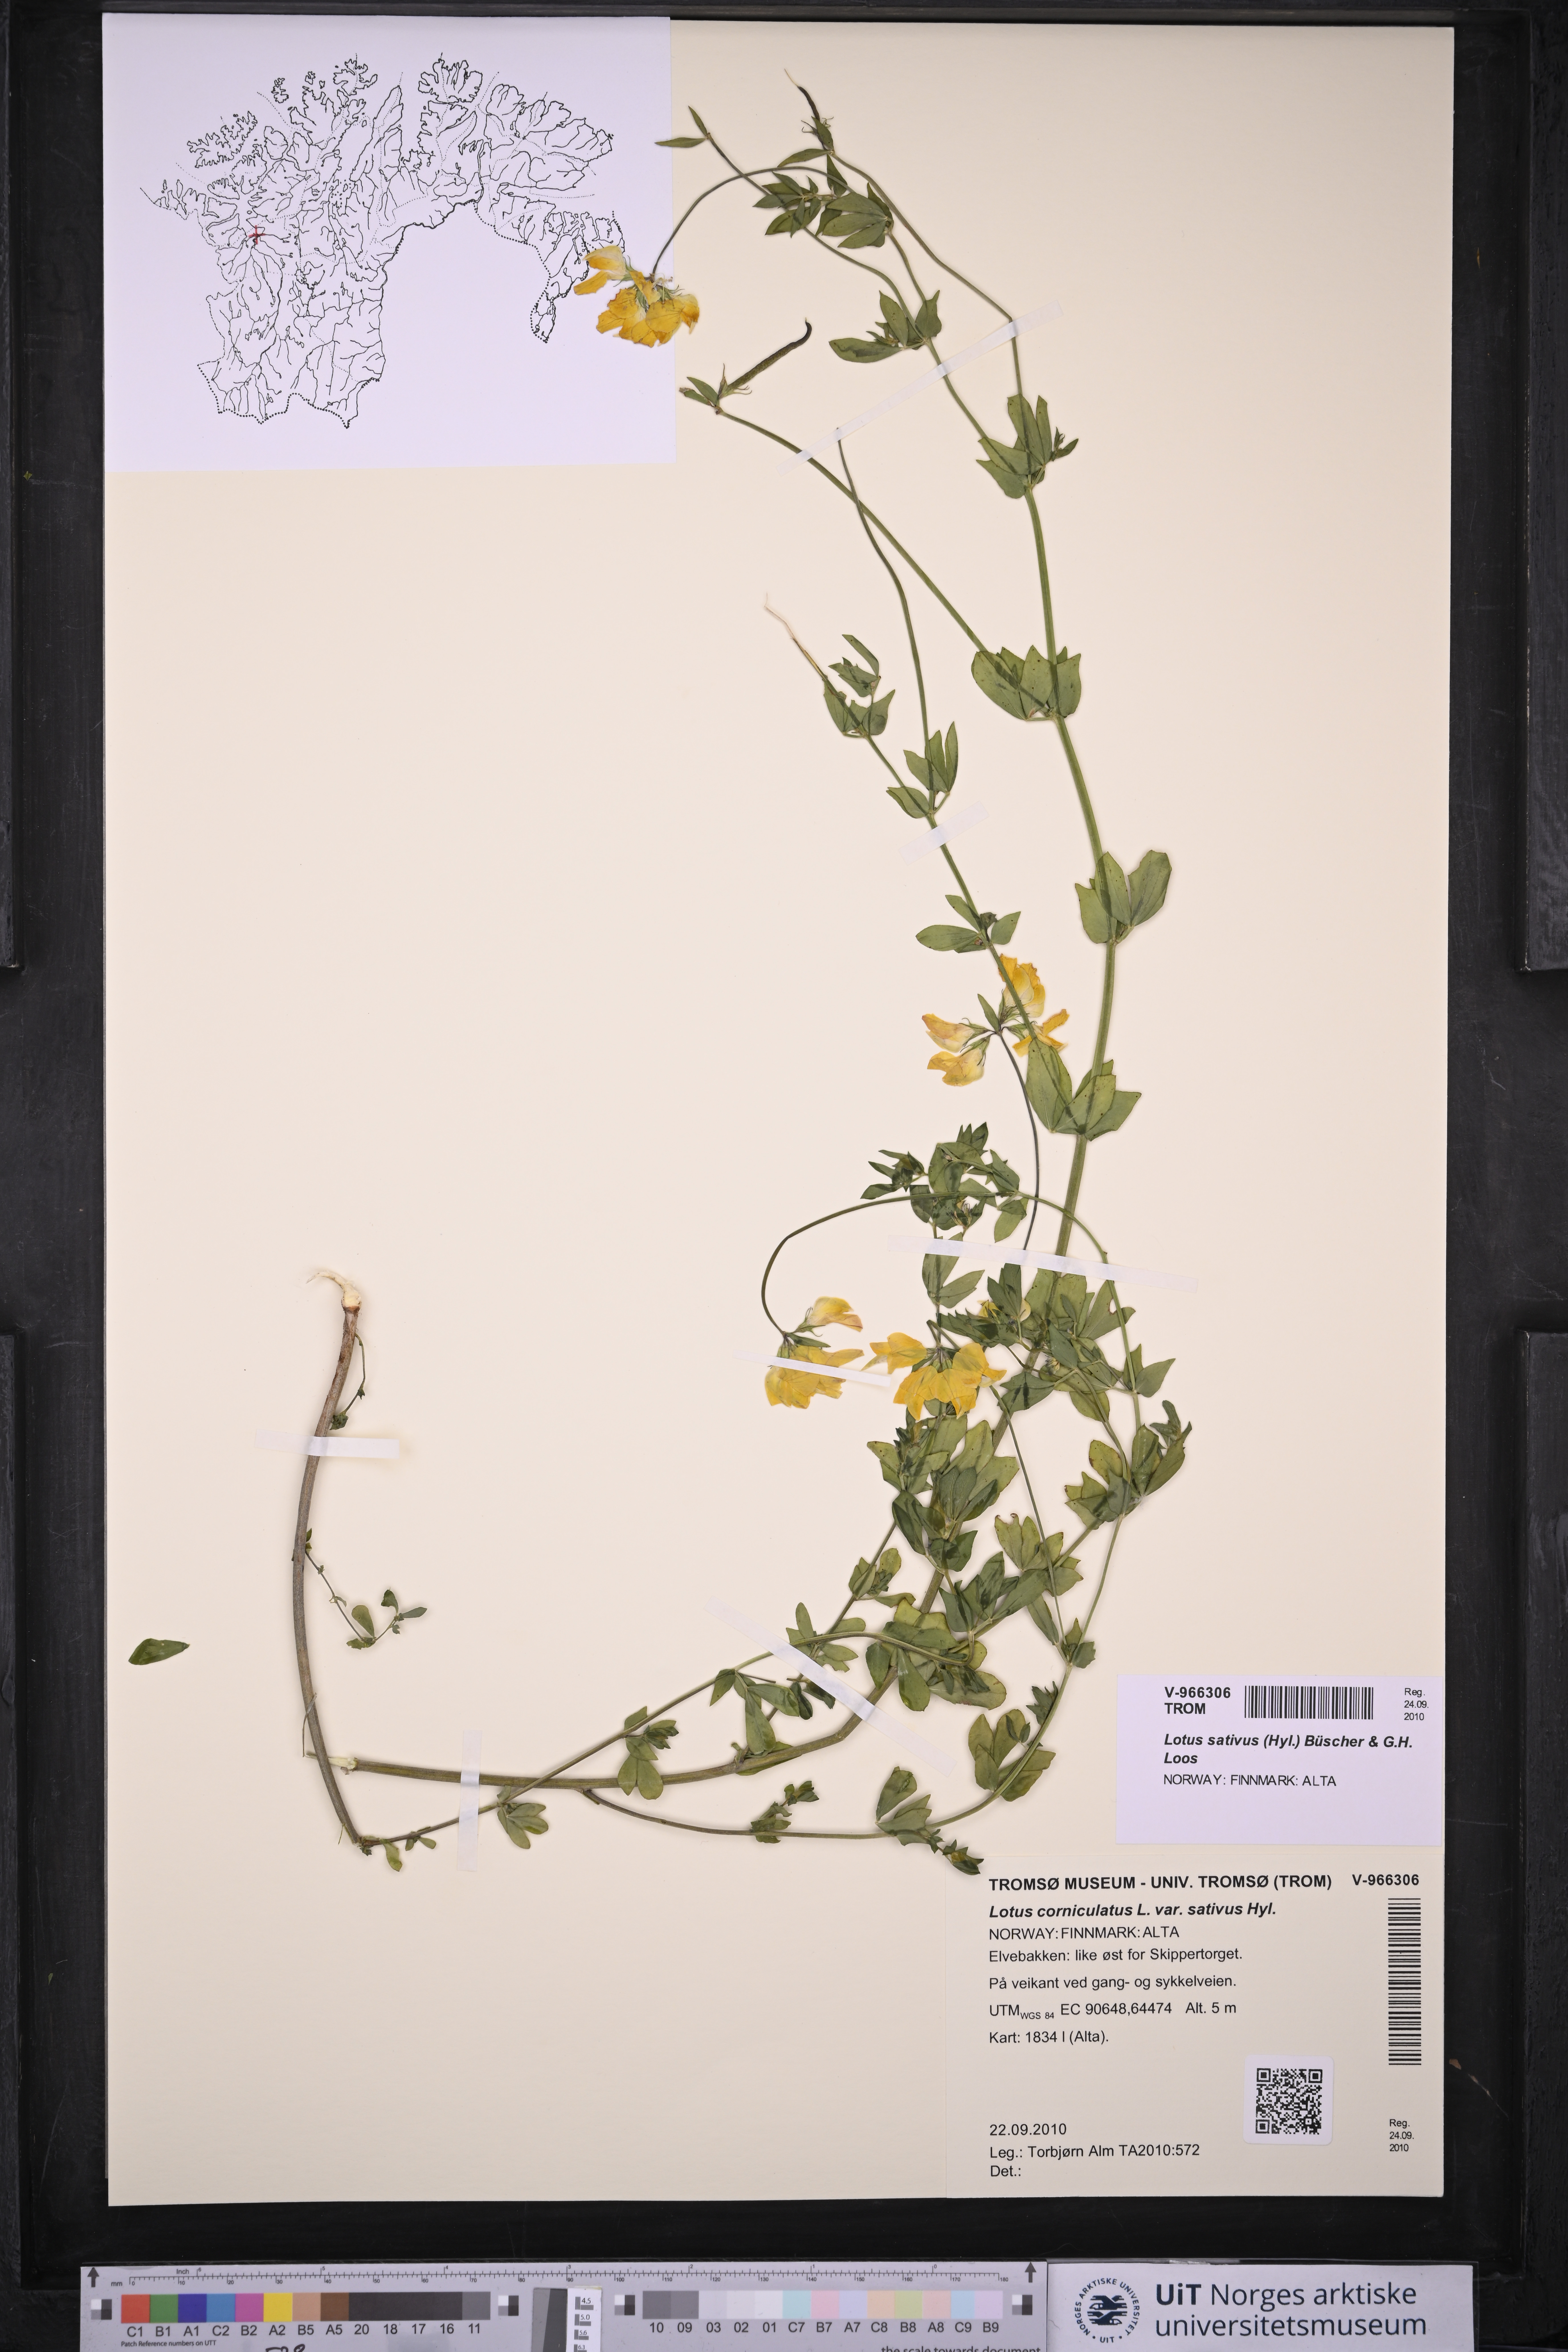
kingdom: Plantae
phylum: Tracheophyta
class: Magnoliopsida
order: Fabales
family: Fabaceae
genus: Lotus
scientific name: Lotus corniculatus
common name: Common bird's-foot-trefoil
